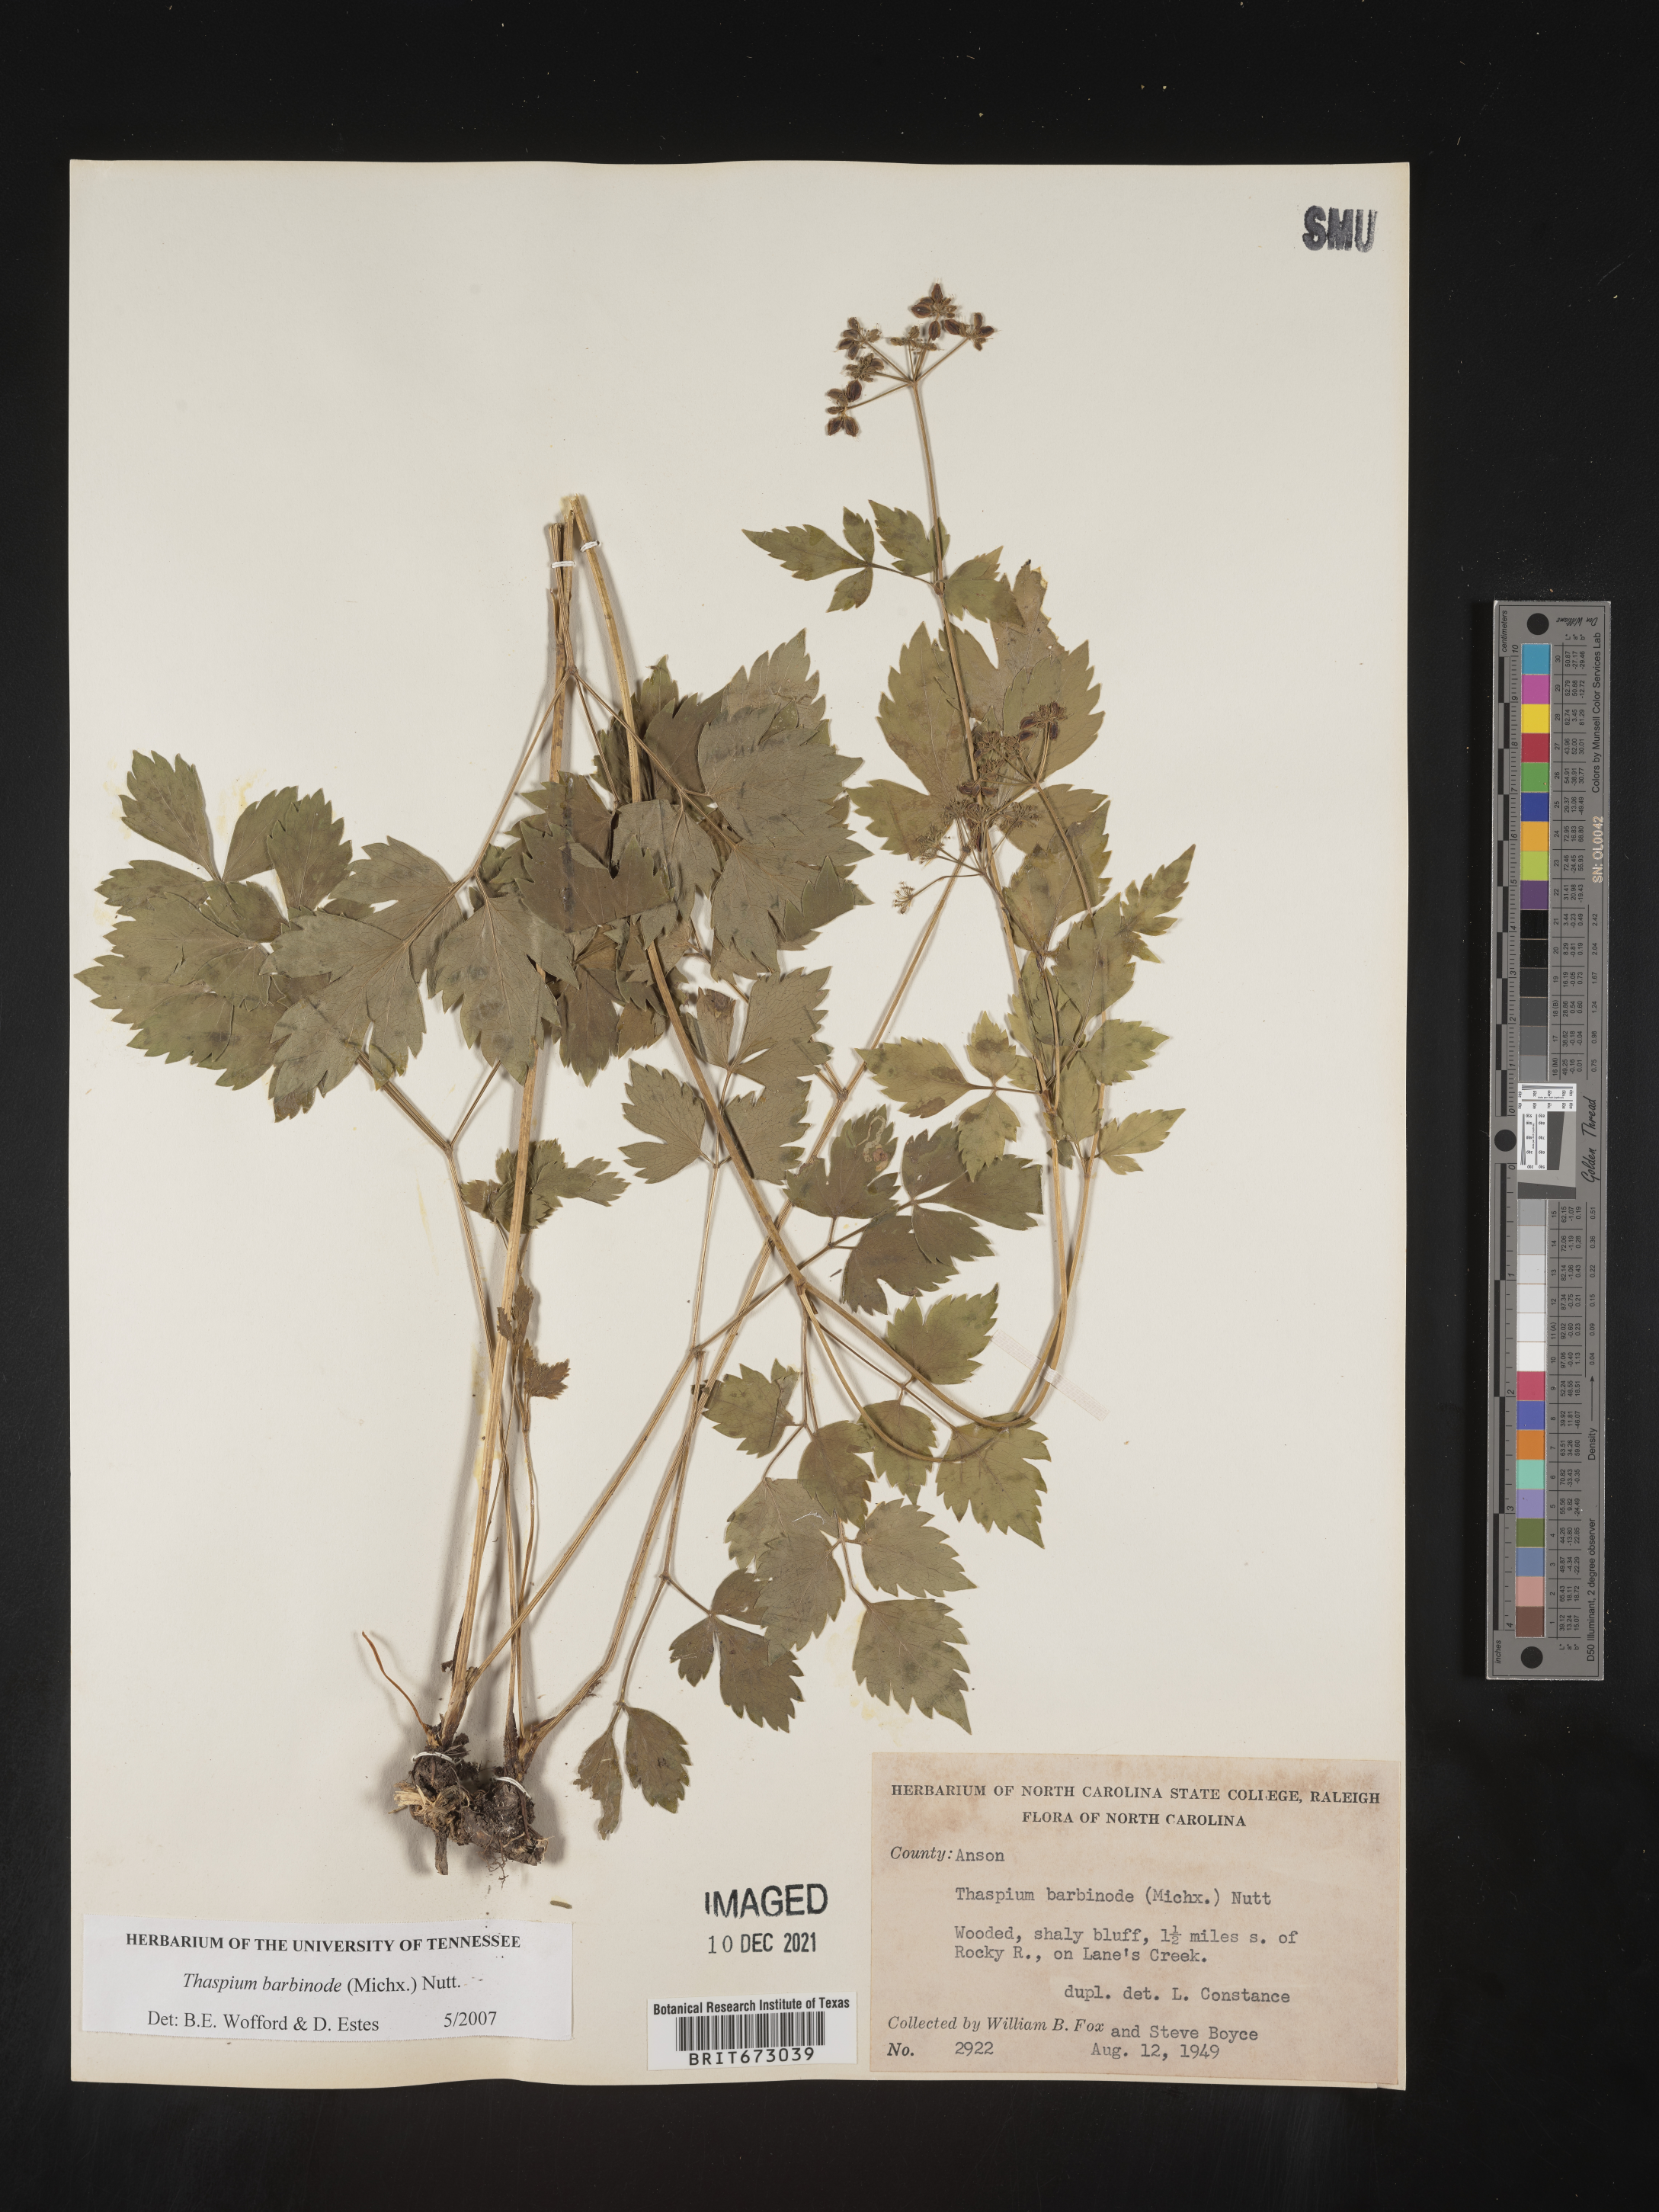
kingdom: Plantae
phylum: Tracheophyta
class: Magnoliopsida
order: Apiales
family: Apiaceae
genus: Thaspium
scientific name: Thaspium barbinode
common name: Bearded meadow-parsnip
